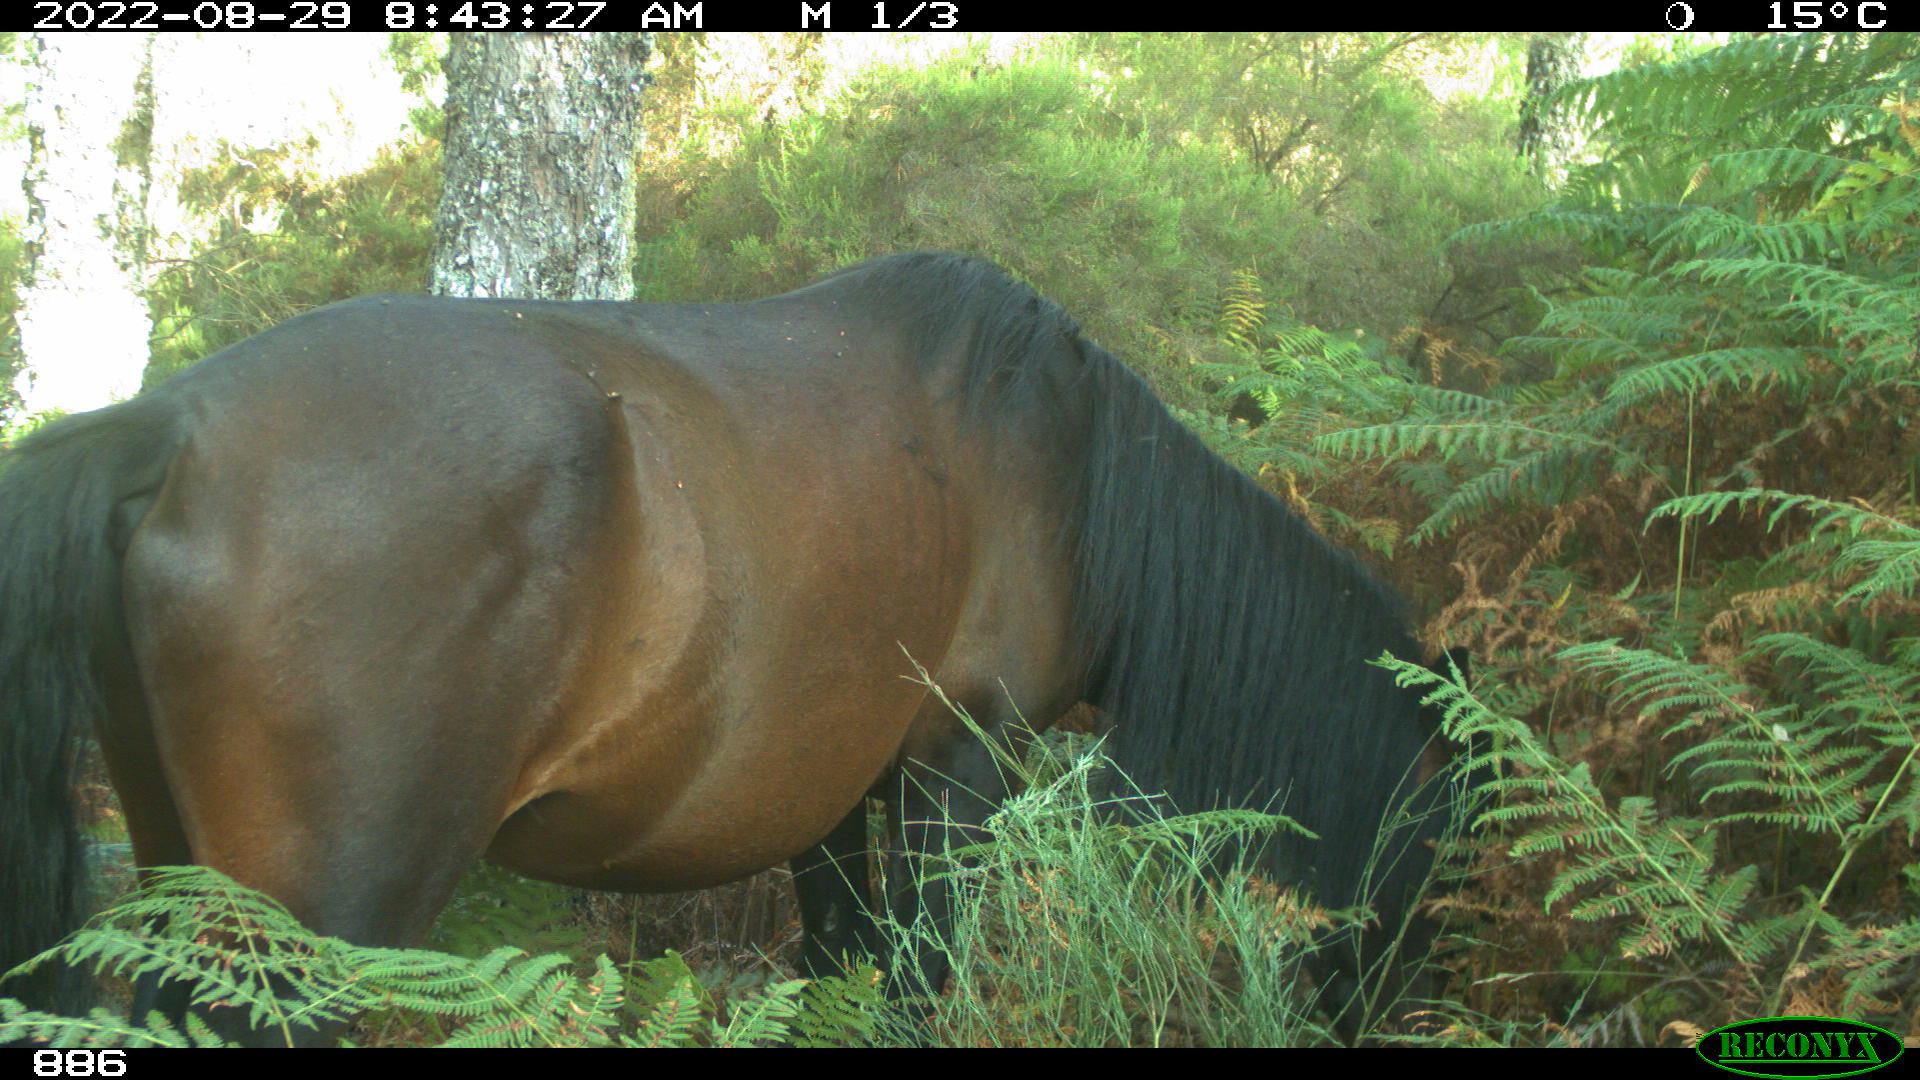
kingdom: Animalia
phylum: Chordata
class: Mammalia
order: Perissodactyla
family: Equidae
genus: Equus
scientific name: Equus caballus
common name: Horse
